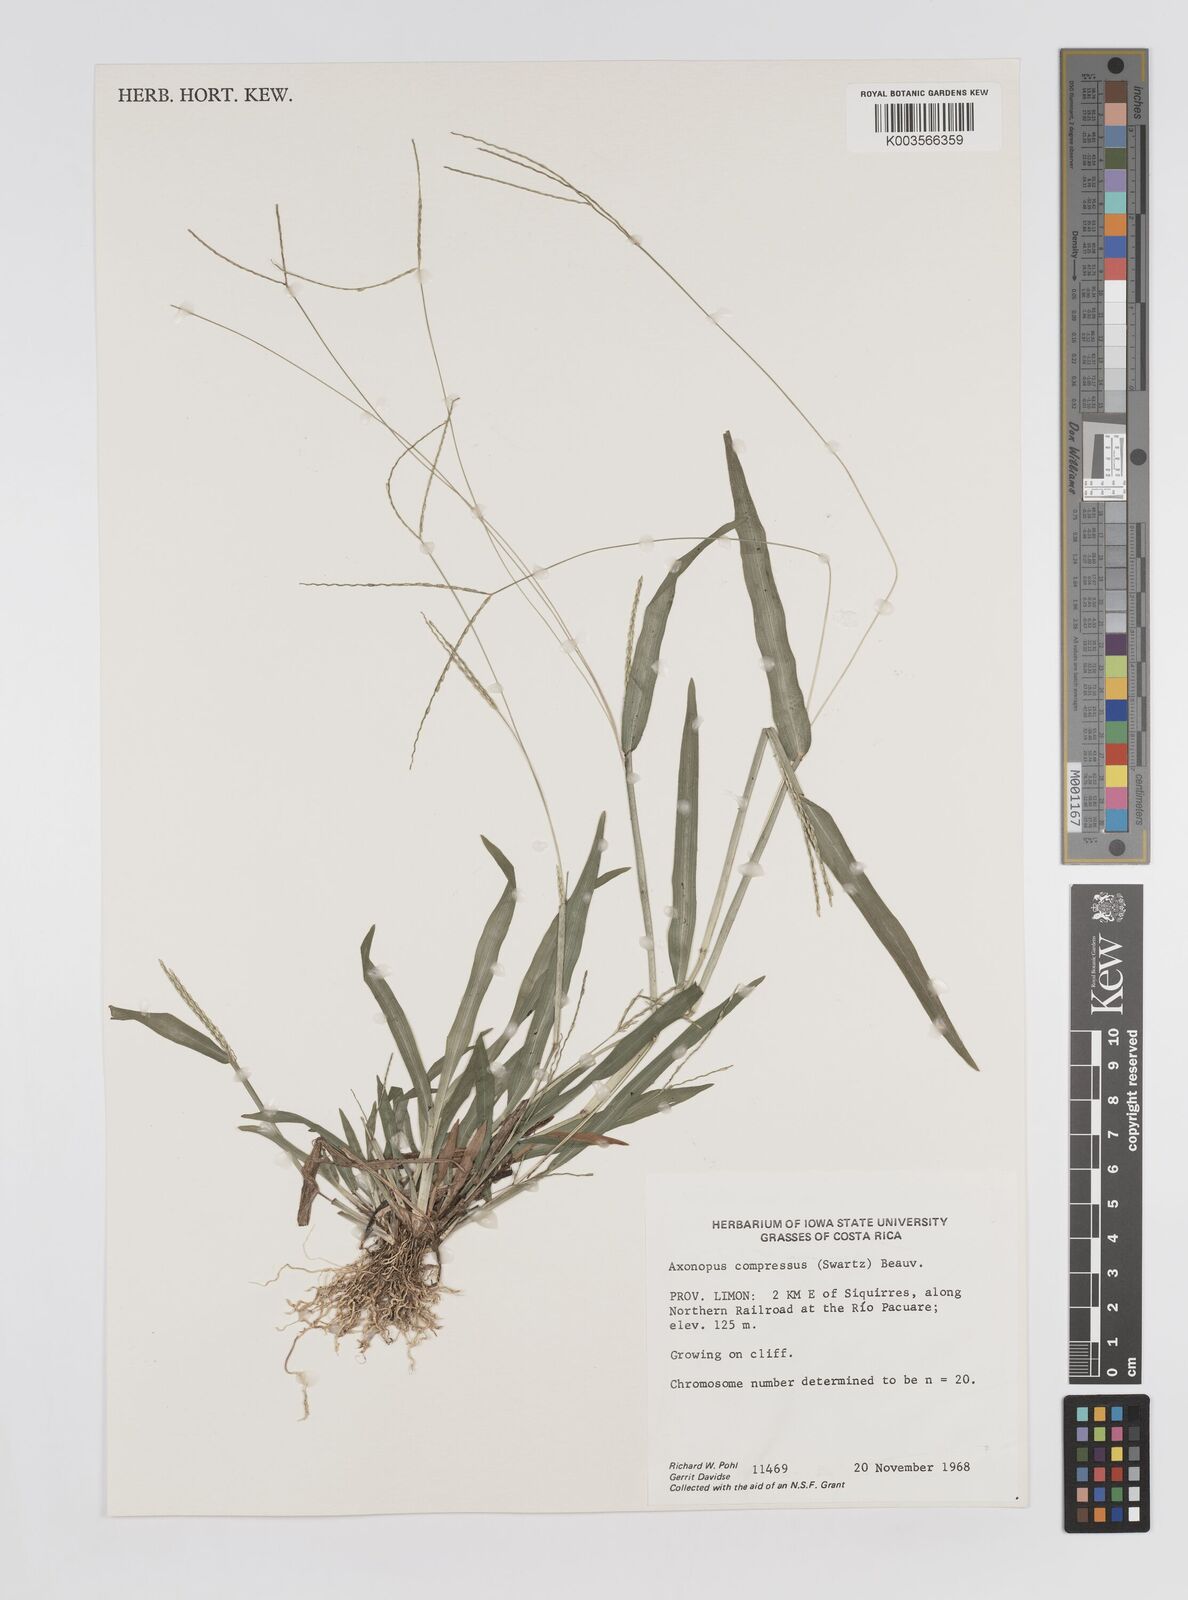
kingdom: Plantae
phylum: Tracheophyta
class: Liliopsida
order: Poales
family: Poaceae
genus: Axonopus
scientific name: Axonopus compressus
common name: American carpet grass
